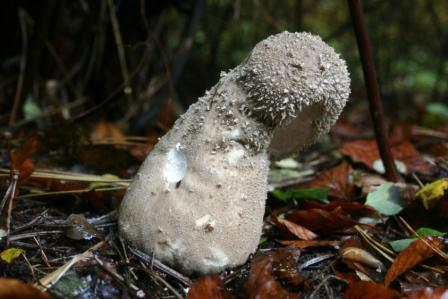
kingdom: Fungi
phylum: Basidiomycota
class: Agaricomycetes
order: Agaricales
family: Lycoperdaceae
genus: Lycoperdon
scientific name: Lycoperdon excipuliforme
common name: højstokket støvbold
